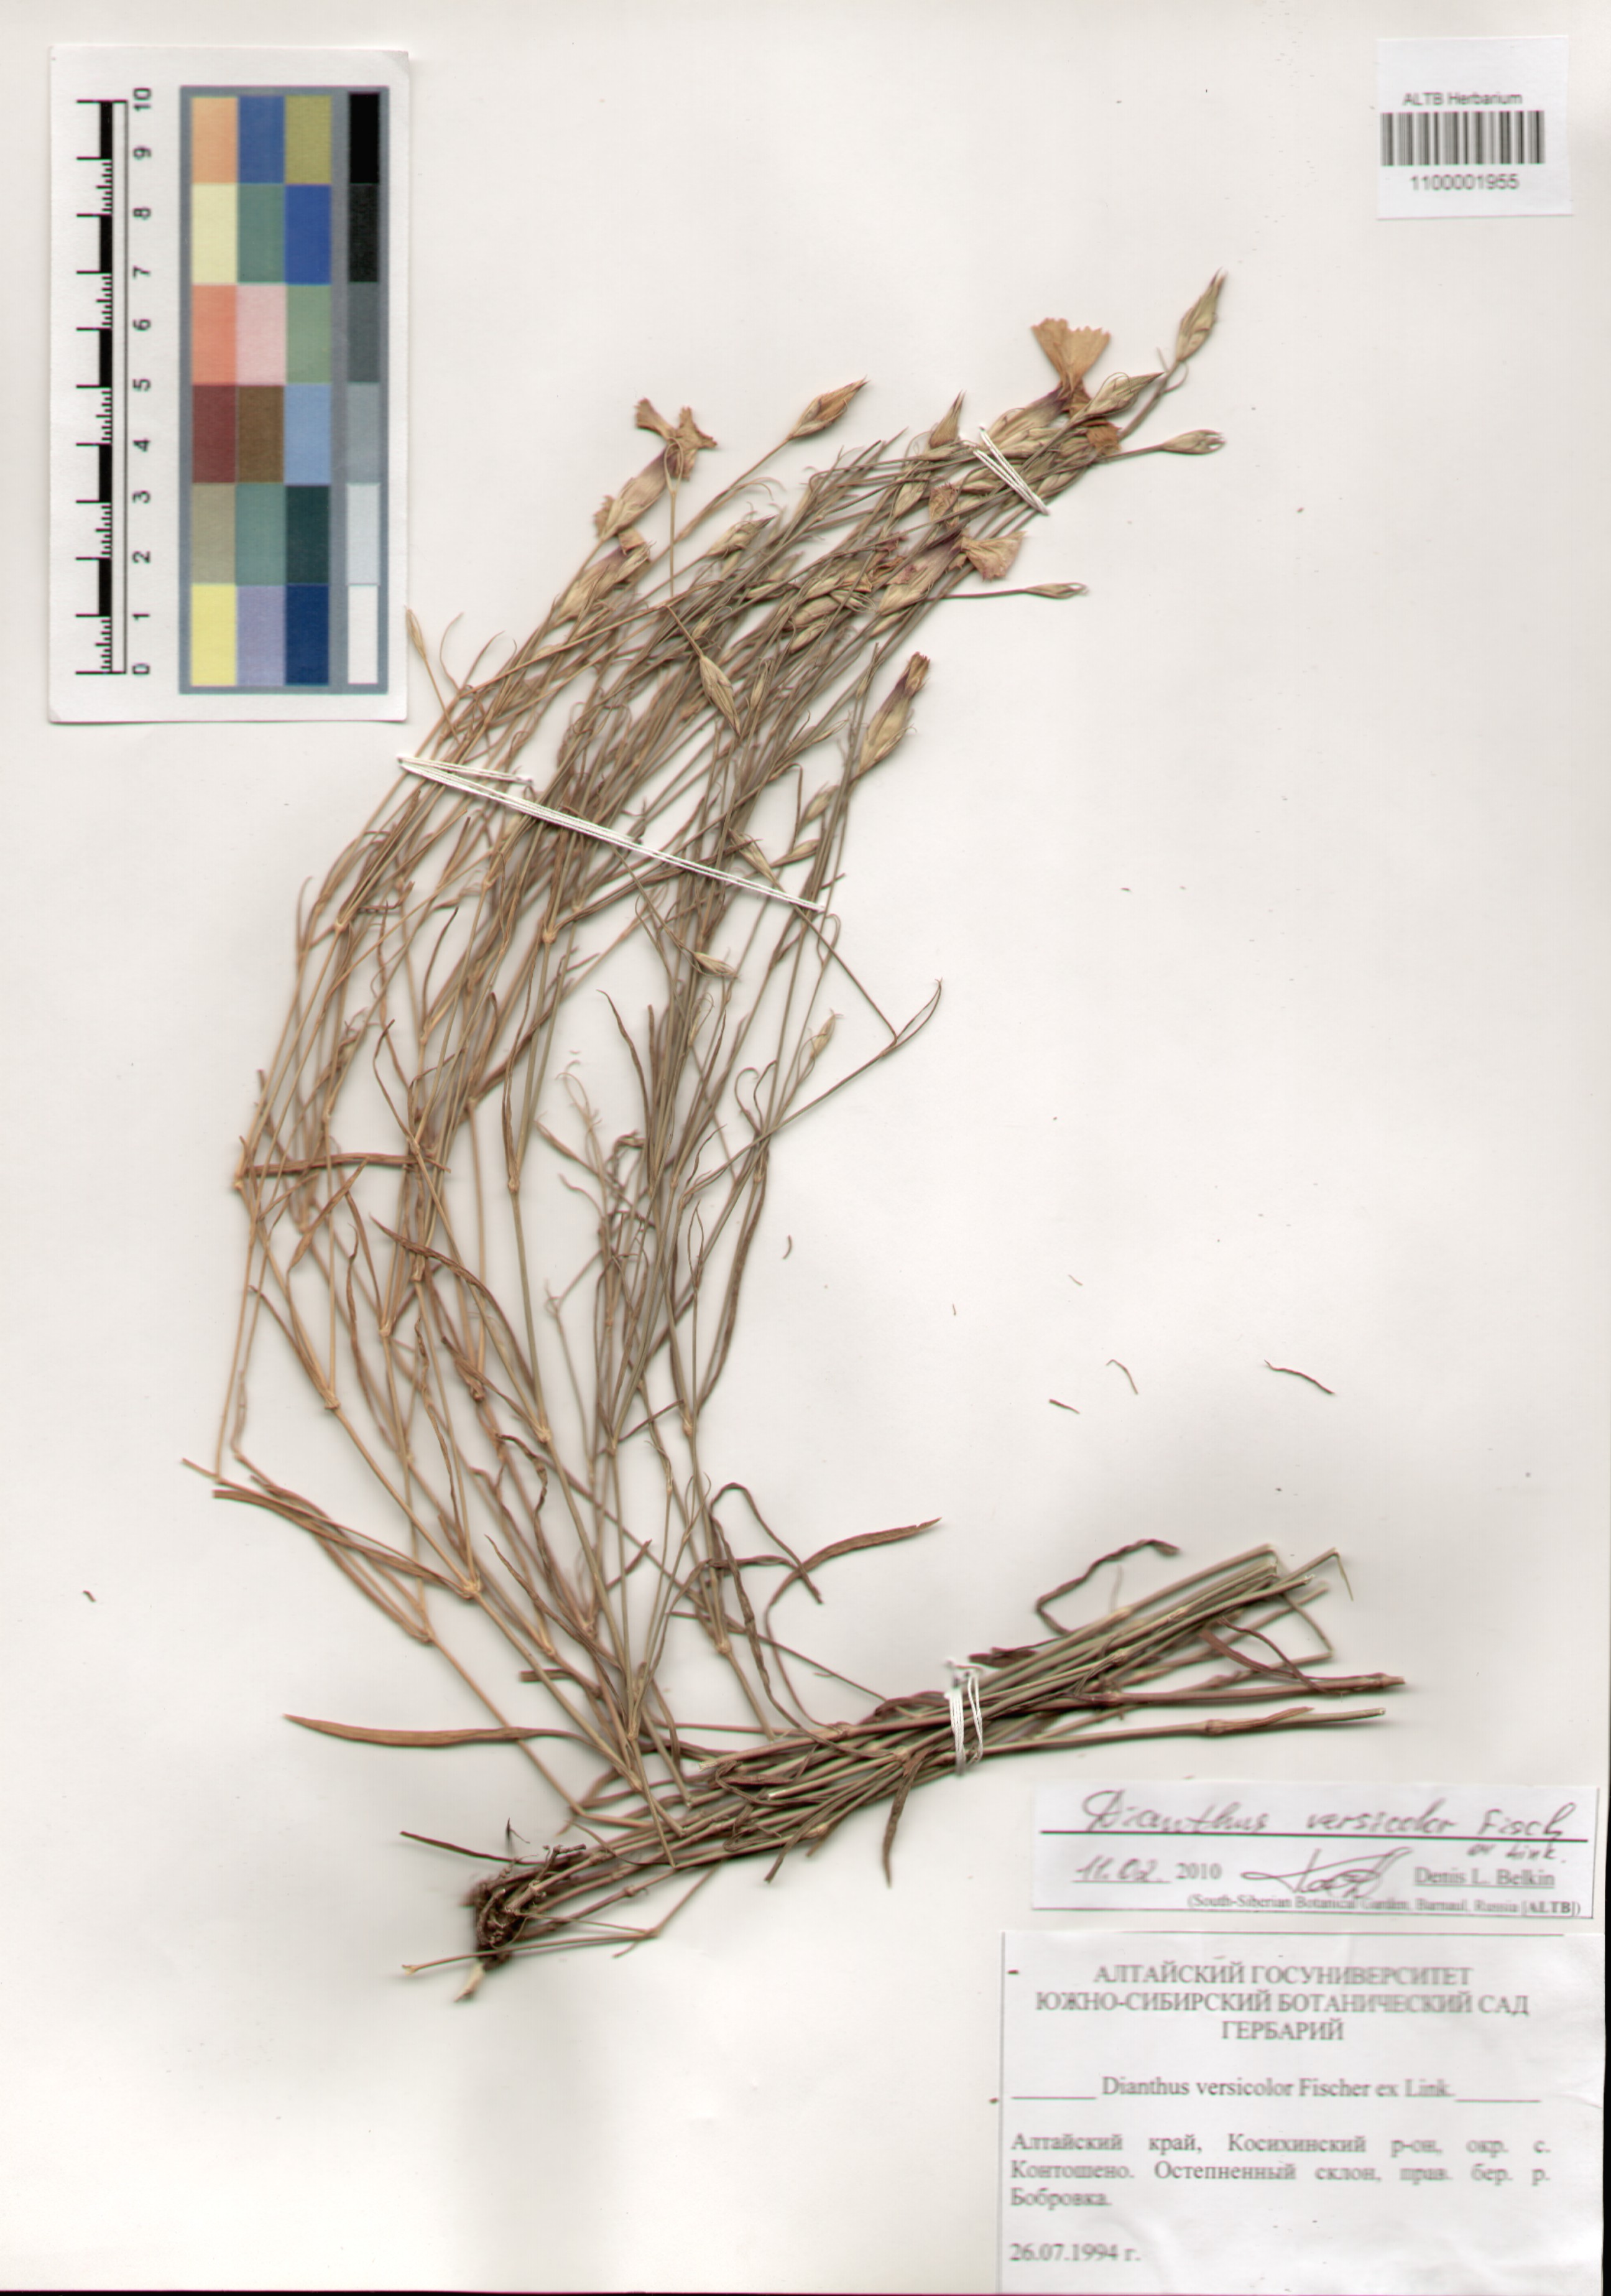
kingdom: Plantae
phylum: Tracheophyta
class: Magnoliopsida
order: Caryophyllales
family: Caryophyllaceae
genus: Dianthus
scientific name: Dianthus chinensis
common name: Rainbow pink
